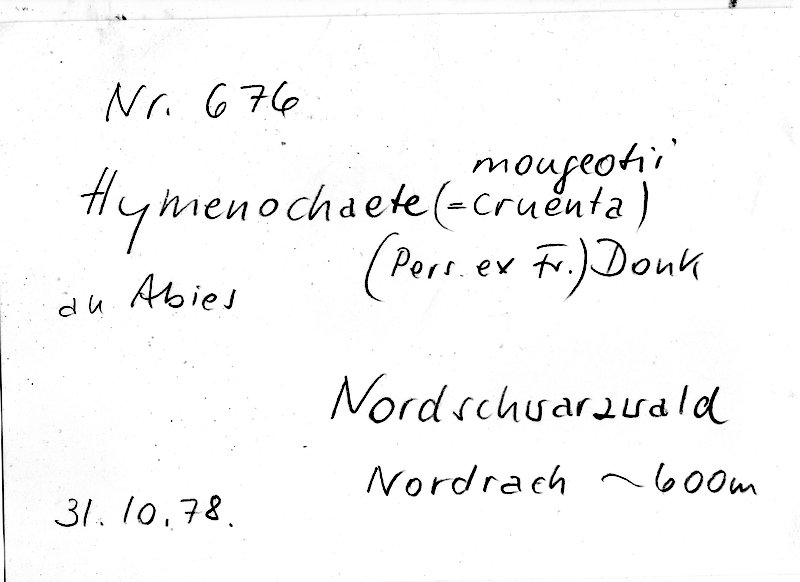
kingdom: Fungi
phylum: Basidiomycota
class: Agaricomycetes
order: Hymenochaetales
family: Hymenochaetaceae
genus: Hymenochaete
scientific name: Hymenochaete mougeotii
